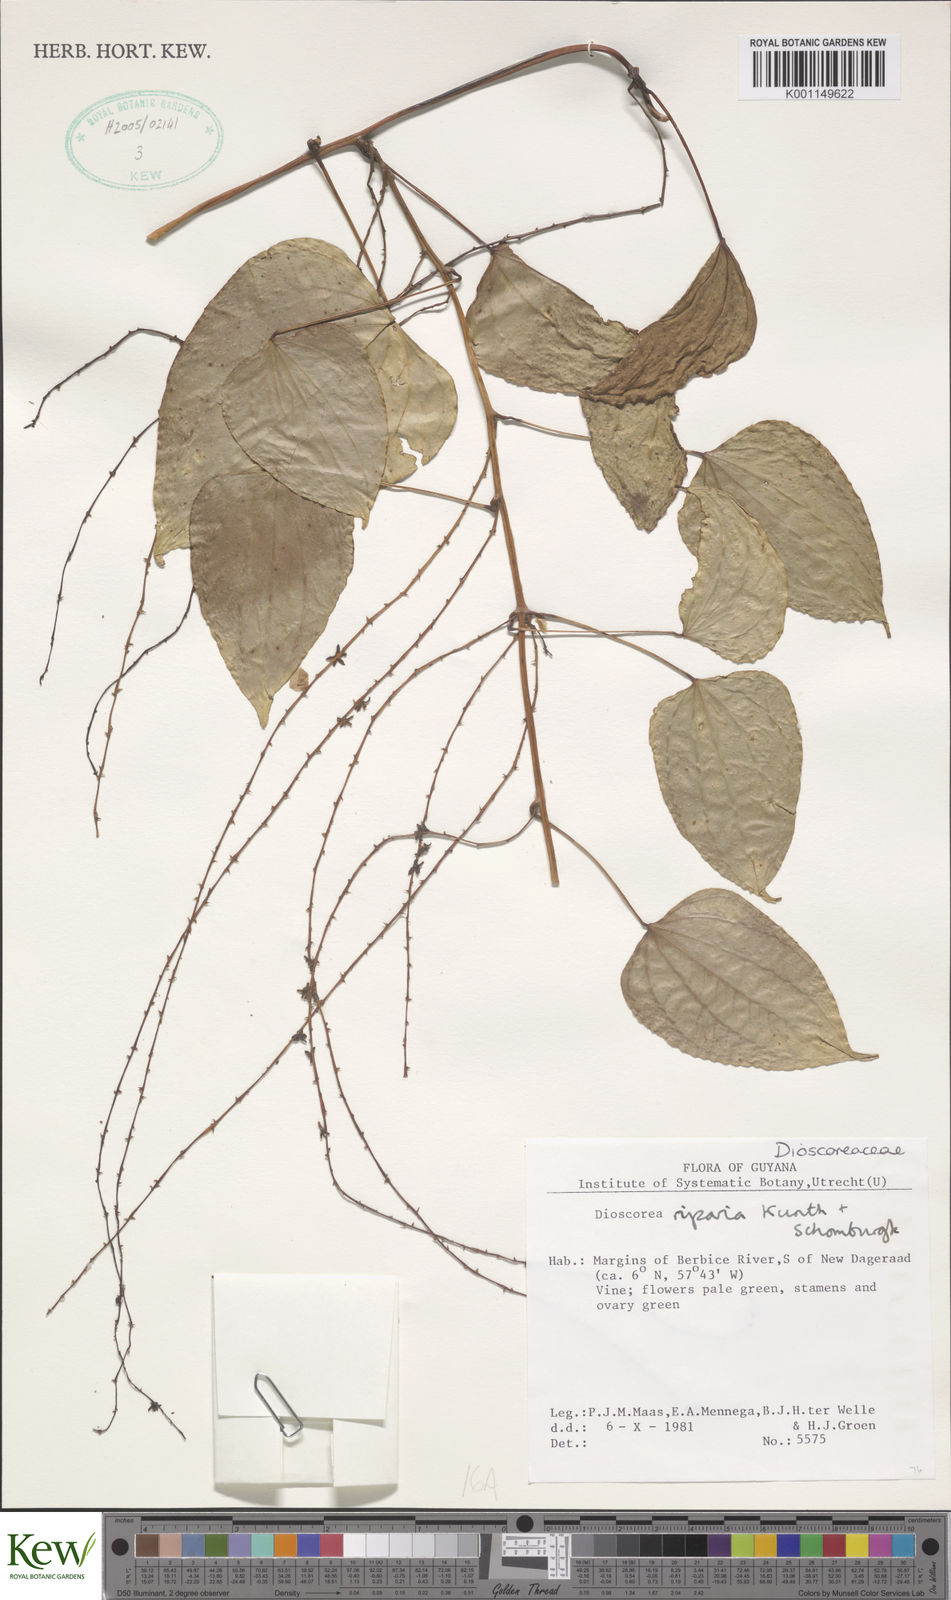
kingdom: Plantae
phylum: Tracheophyta
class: Liliopsida
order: Dioscoreales
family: Dioscoreaceae
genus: Dioscorea
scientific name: Dioscorea chondrocarpa
